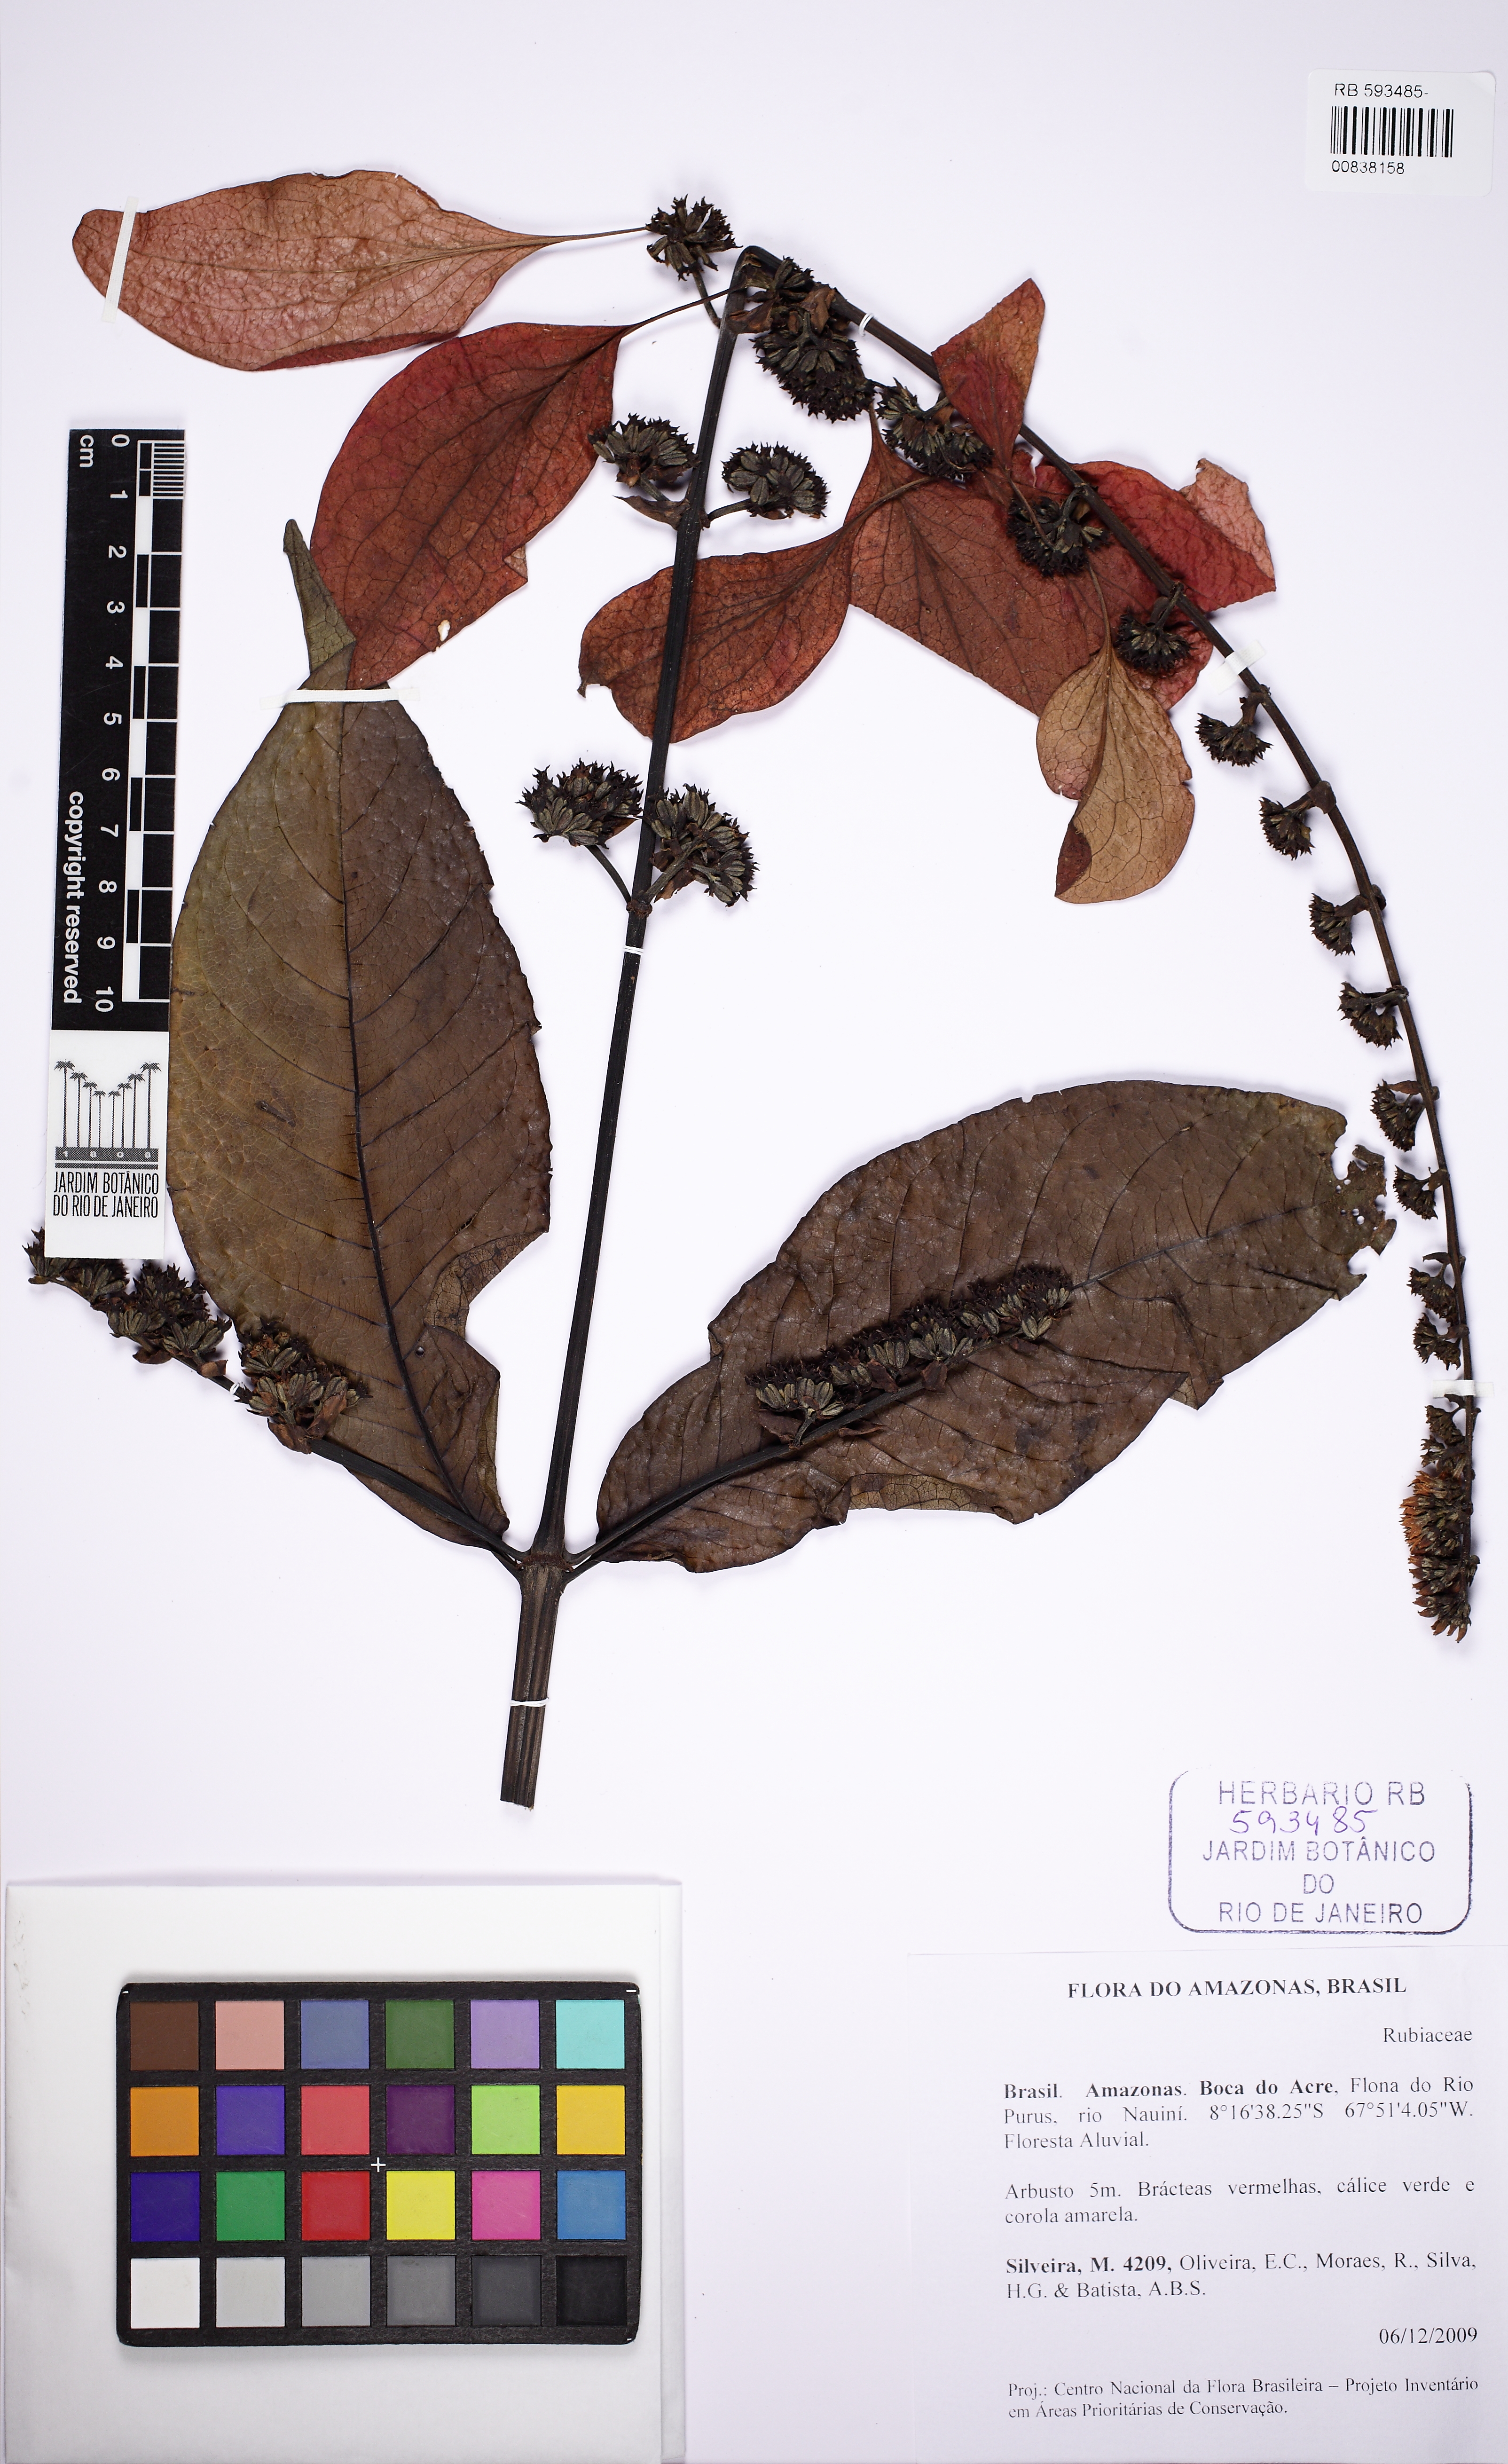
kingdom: Plantae
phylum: Tracheophyta
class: Magnoliopsida
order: Gentianales
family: Rubiaceae
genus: Warszewiczia
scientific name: Warszewiczia coccinea
